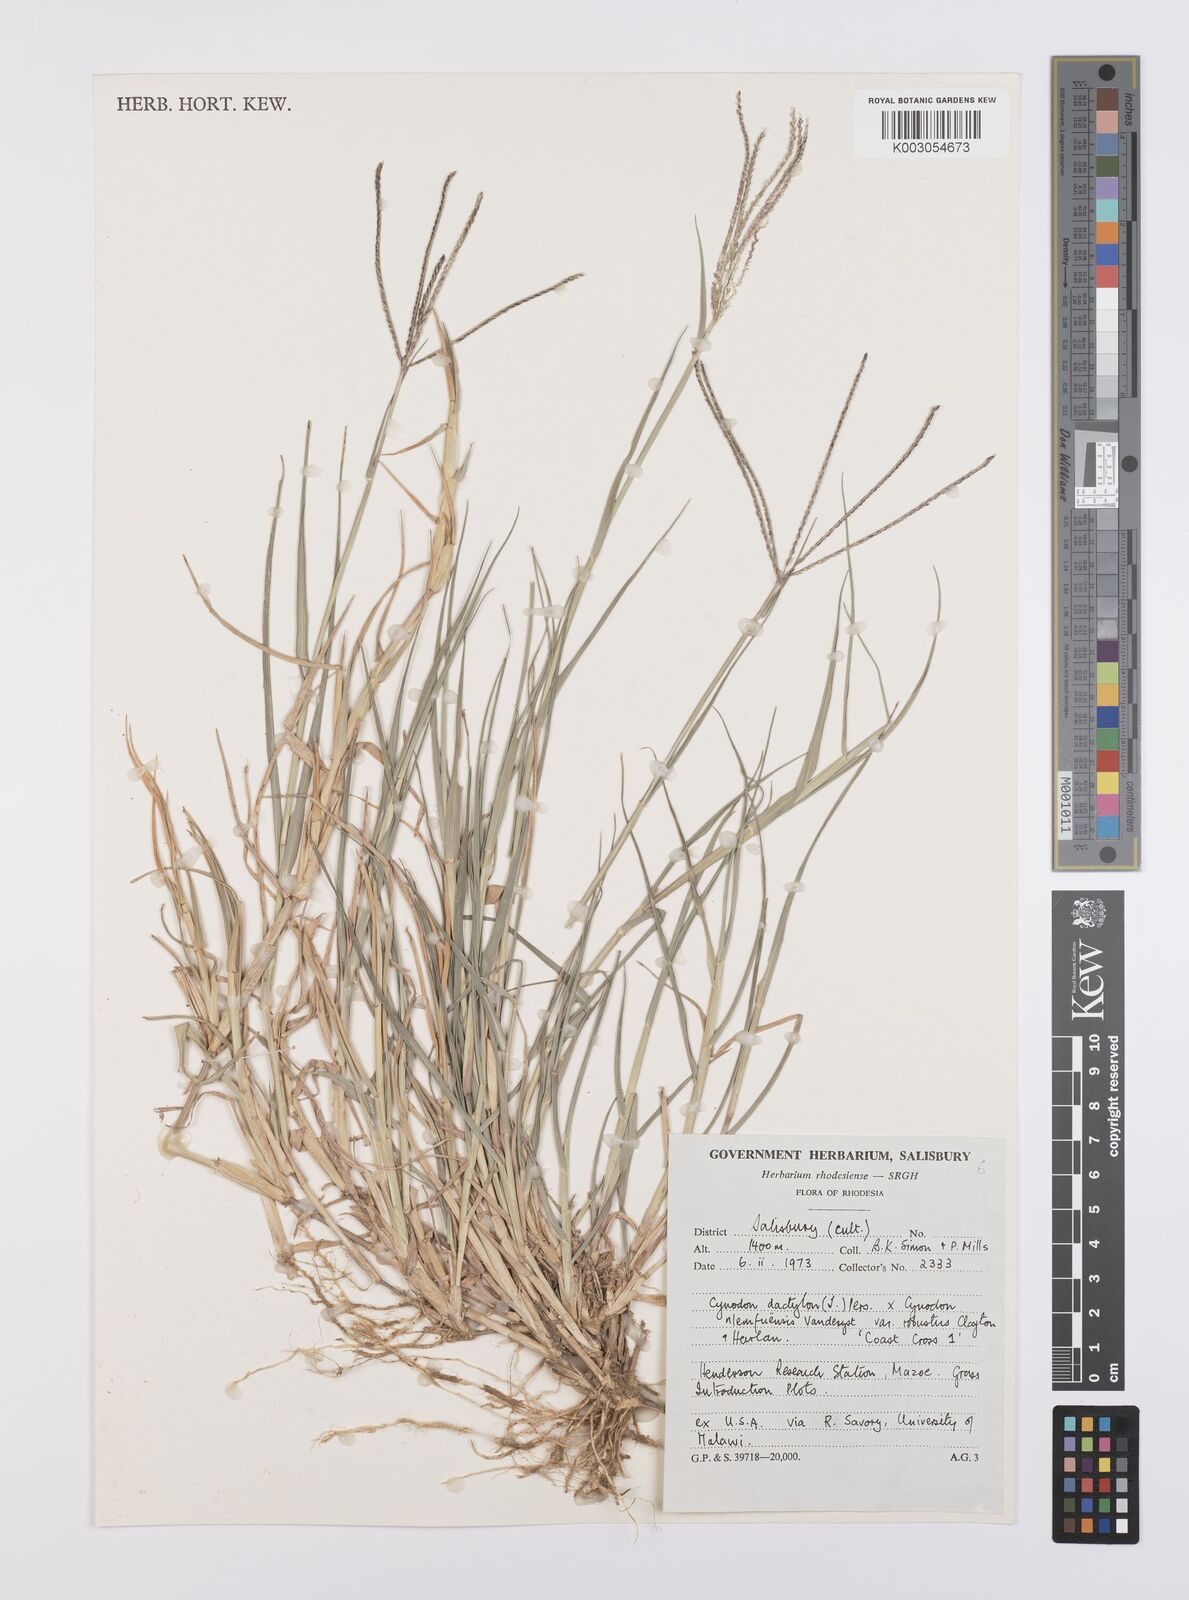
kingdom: Plantae
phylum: Tracheophyta
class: Liliopsida
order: Poales
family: Poaceae
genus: Cynodon
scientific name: Cynodon dactylon
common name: Bermuda grass
